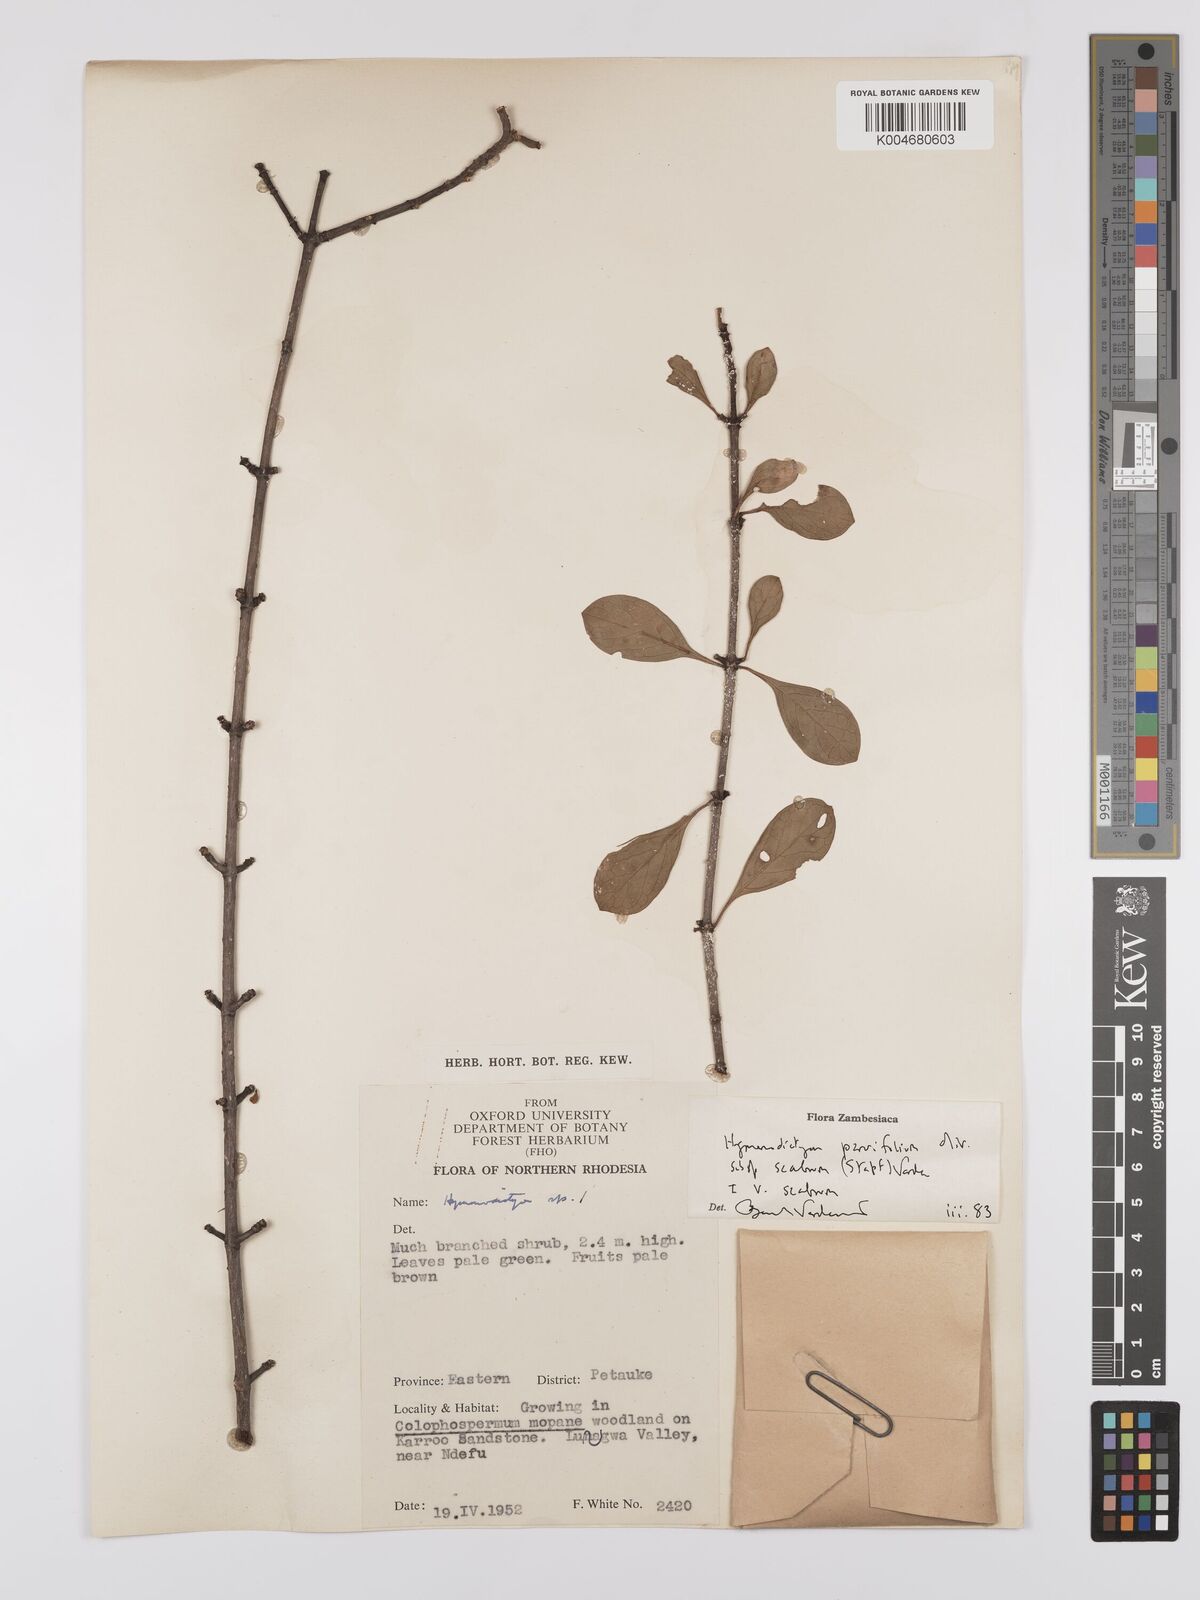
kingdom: Plantae
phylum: Tracheophyta
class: Magnoliopsida
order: Gentianales
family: Rubiaceae
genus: Hymenodictyon
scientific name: Hymenodictyon scabrum
